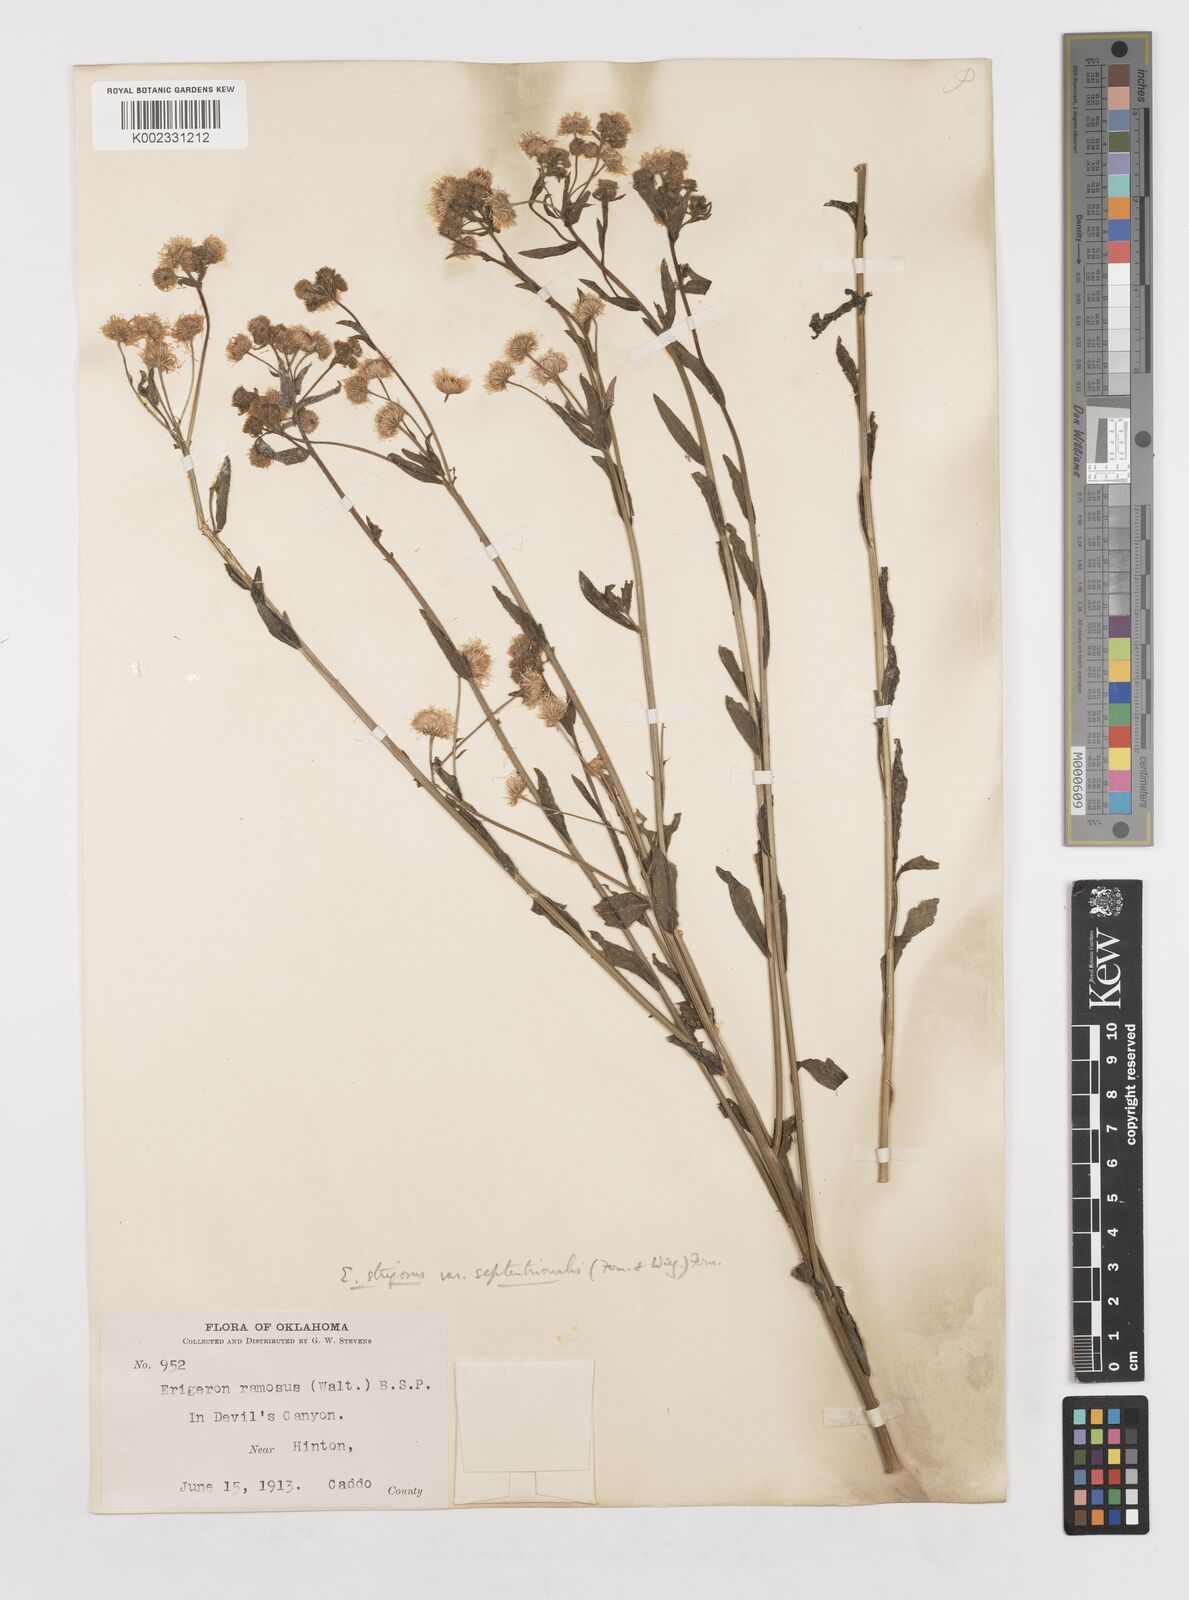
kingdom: Plantae
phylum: Tracheophyta
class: Magnoliopsida
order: Asterales
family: Asteraceae
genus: Erigeron
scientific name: Erigeron annuus
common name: Tall fleabane
